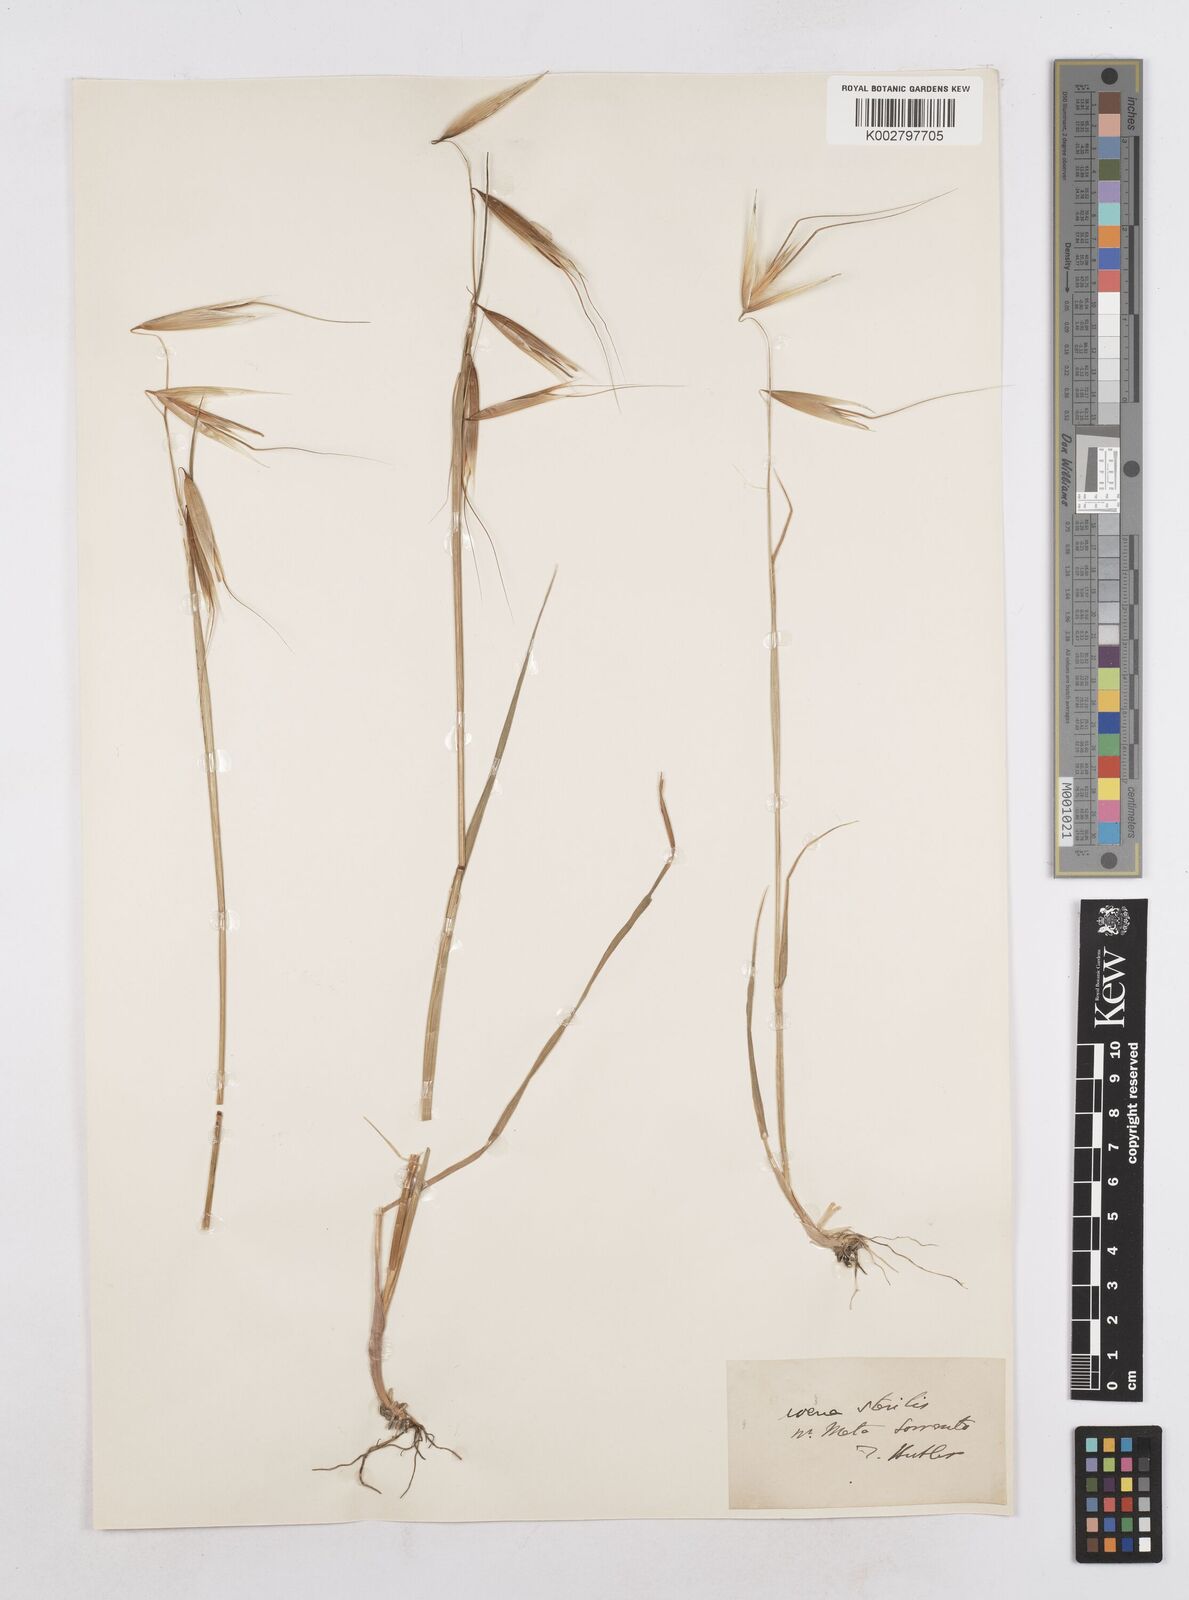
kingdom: Plantae
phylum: Tracheophyta
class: Liliopsida
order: Poales
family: Poaceae
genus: Avena
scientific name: Avena sterilis
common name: Animated oat
